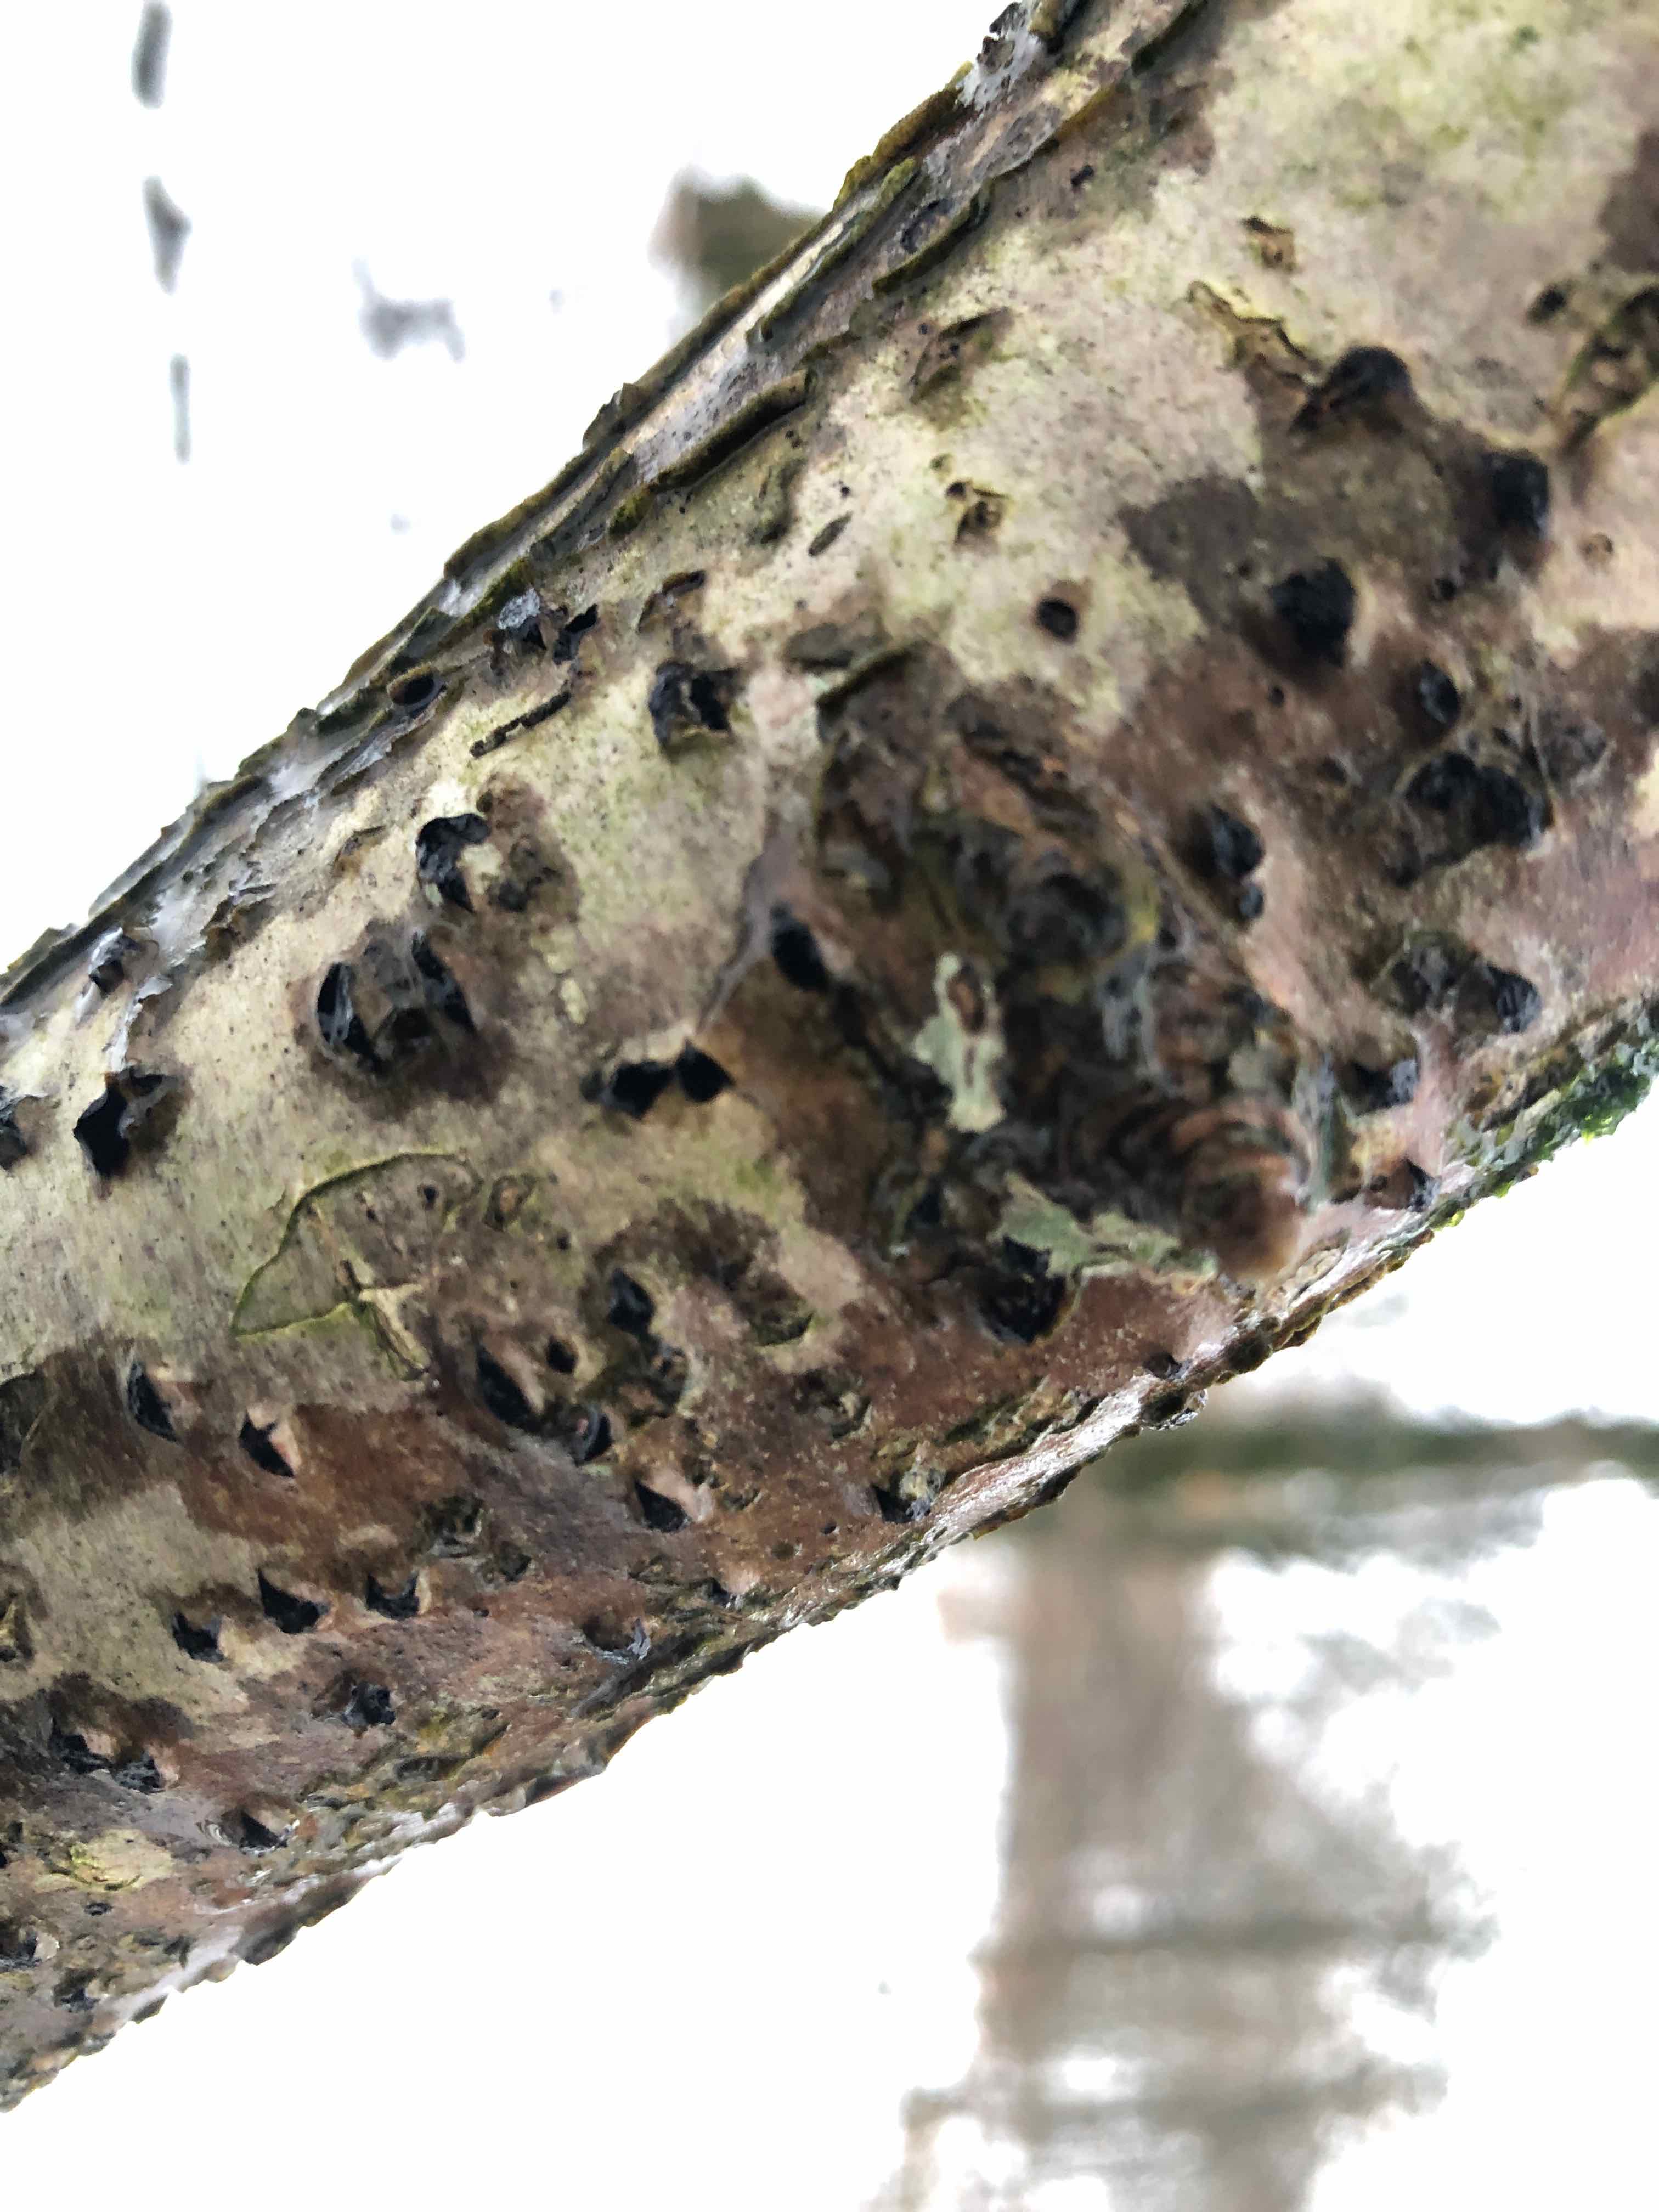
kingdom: Fungi
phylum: Ascomycota
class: Sordariomycetes
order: Xylariales
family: Diatrypaceae
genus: Diatrypella
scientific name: Diatrypella favacea
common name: klemt kulskorpe
